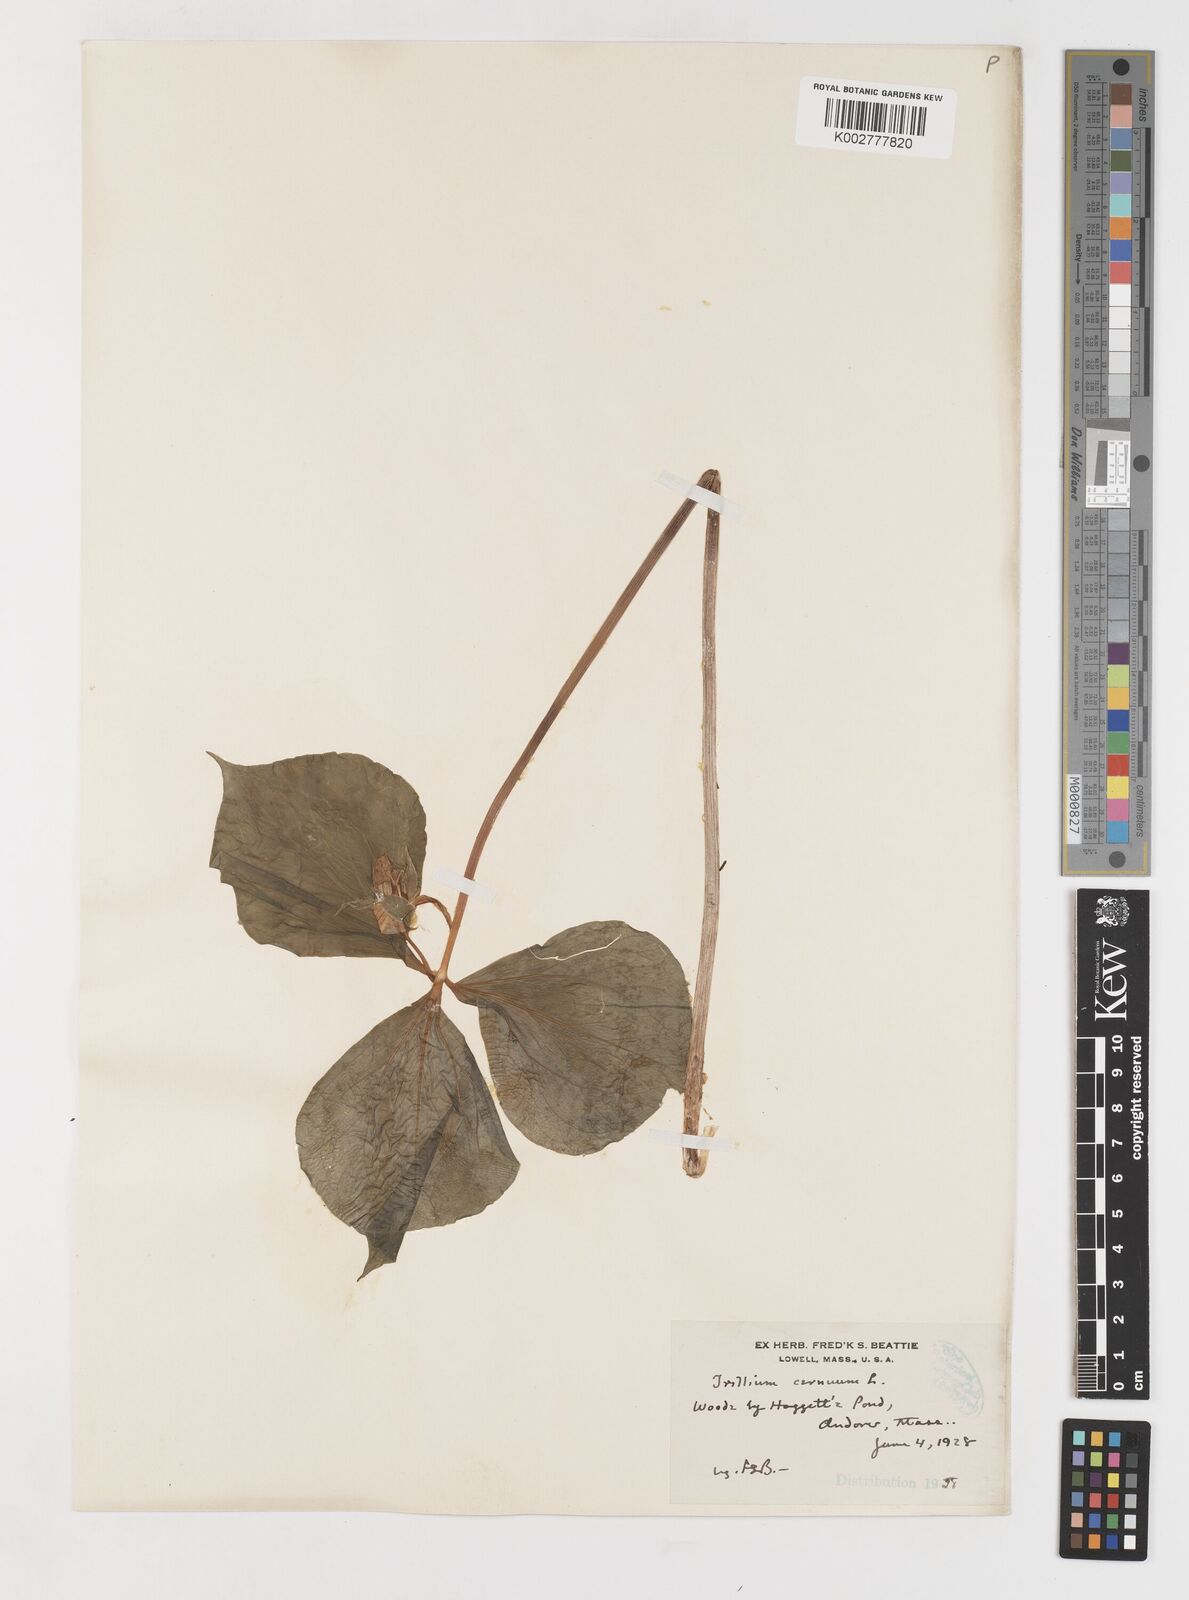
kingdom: Plantae
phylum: Tracheophyta
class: Liliopsida
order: Liliales
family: Melanthiaceae
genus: Trillium
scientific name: Trillium cernuum
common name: Nodding trillium
